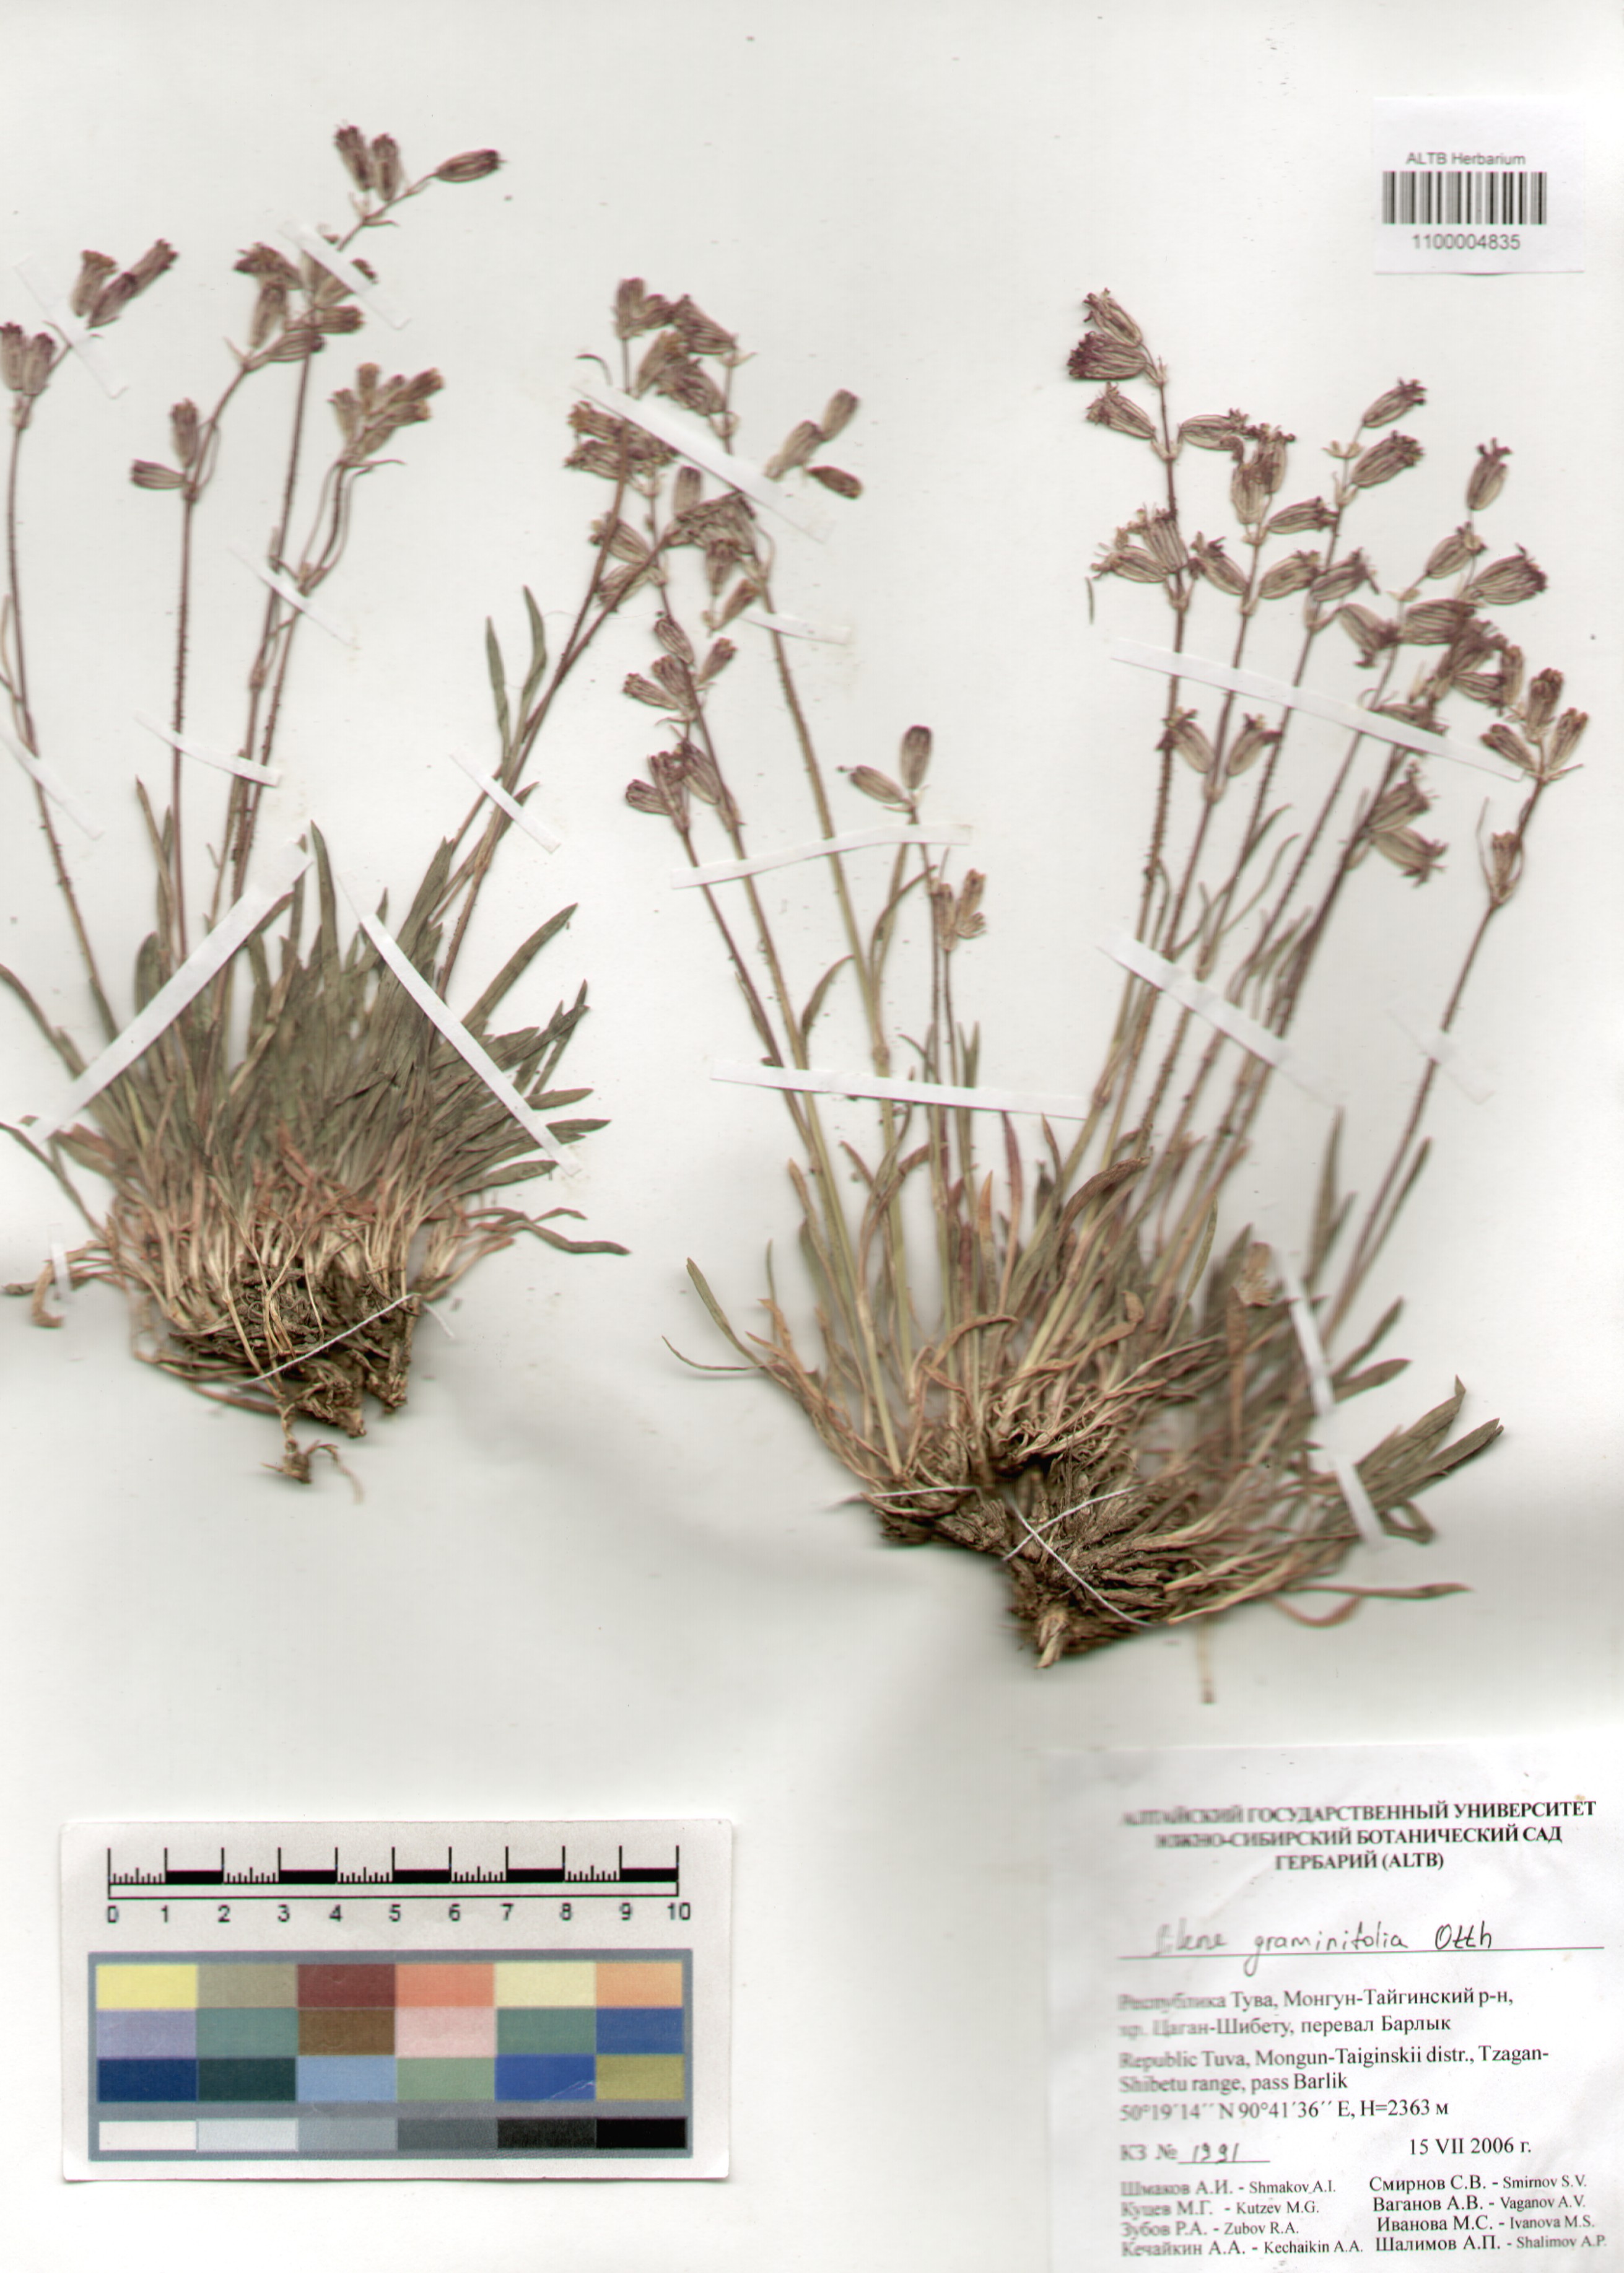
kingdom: Plantae
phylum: Tracheophyta
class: Magnoliopsida
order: Caryophyllales
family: Caryophyllaceae
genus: Silene
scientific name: Silene graminifolia
